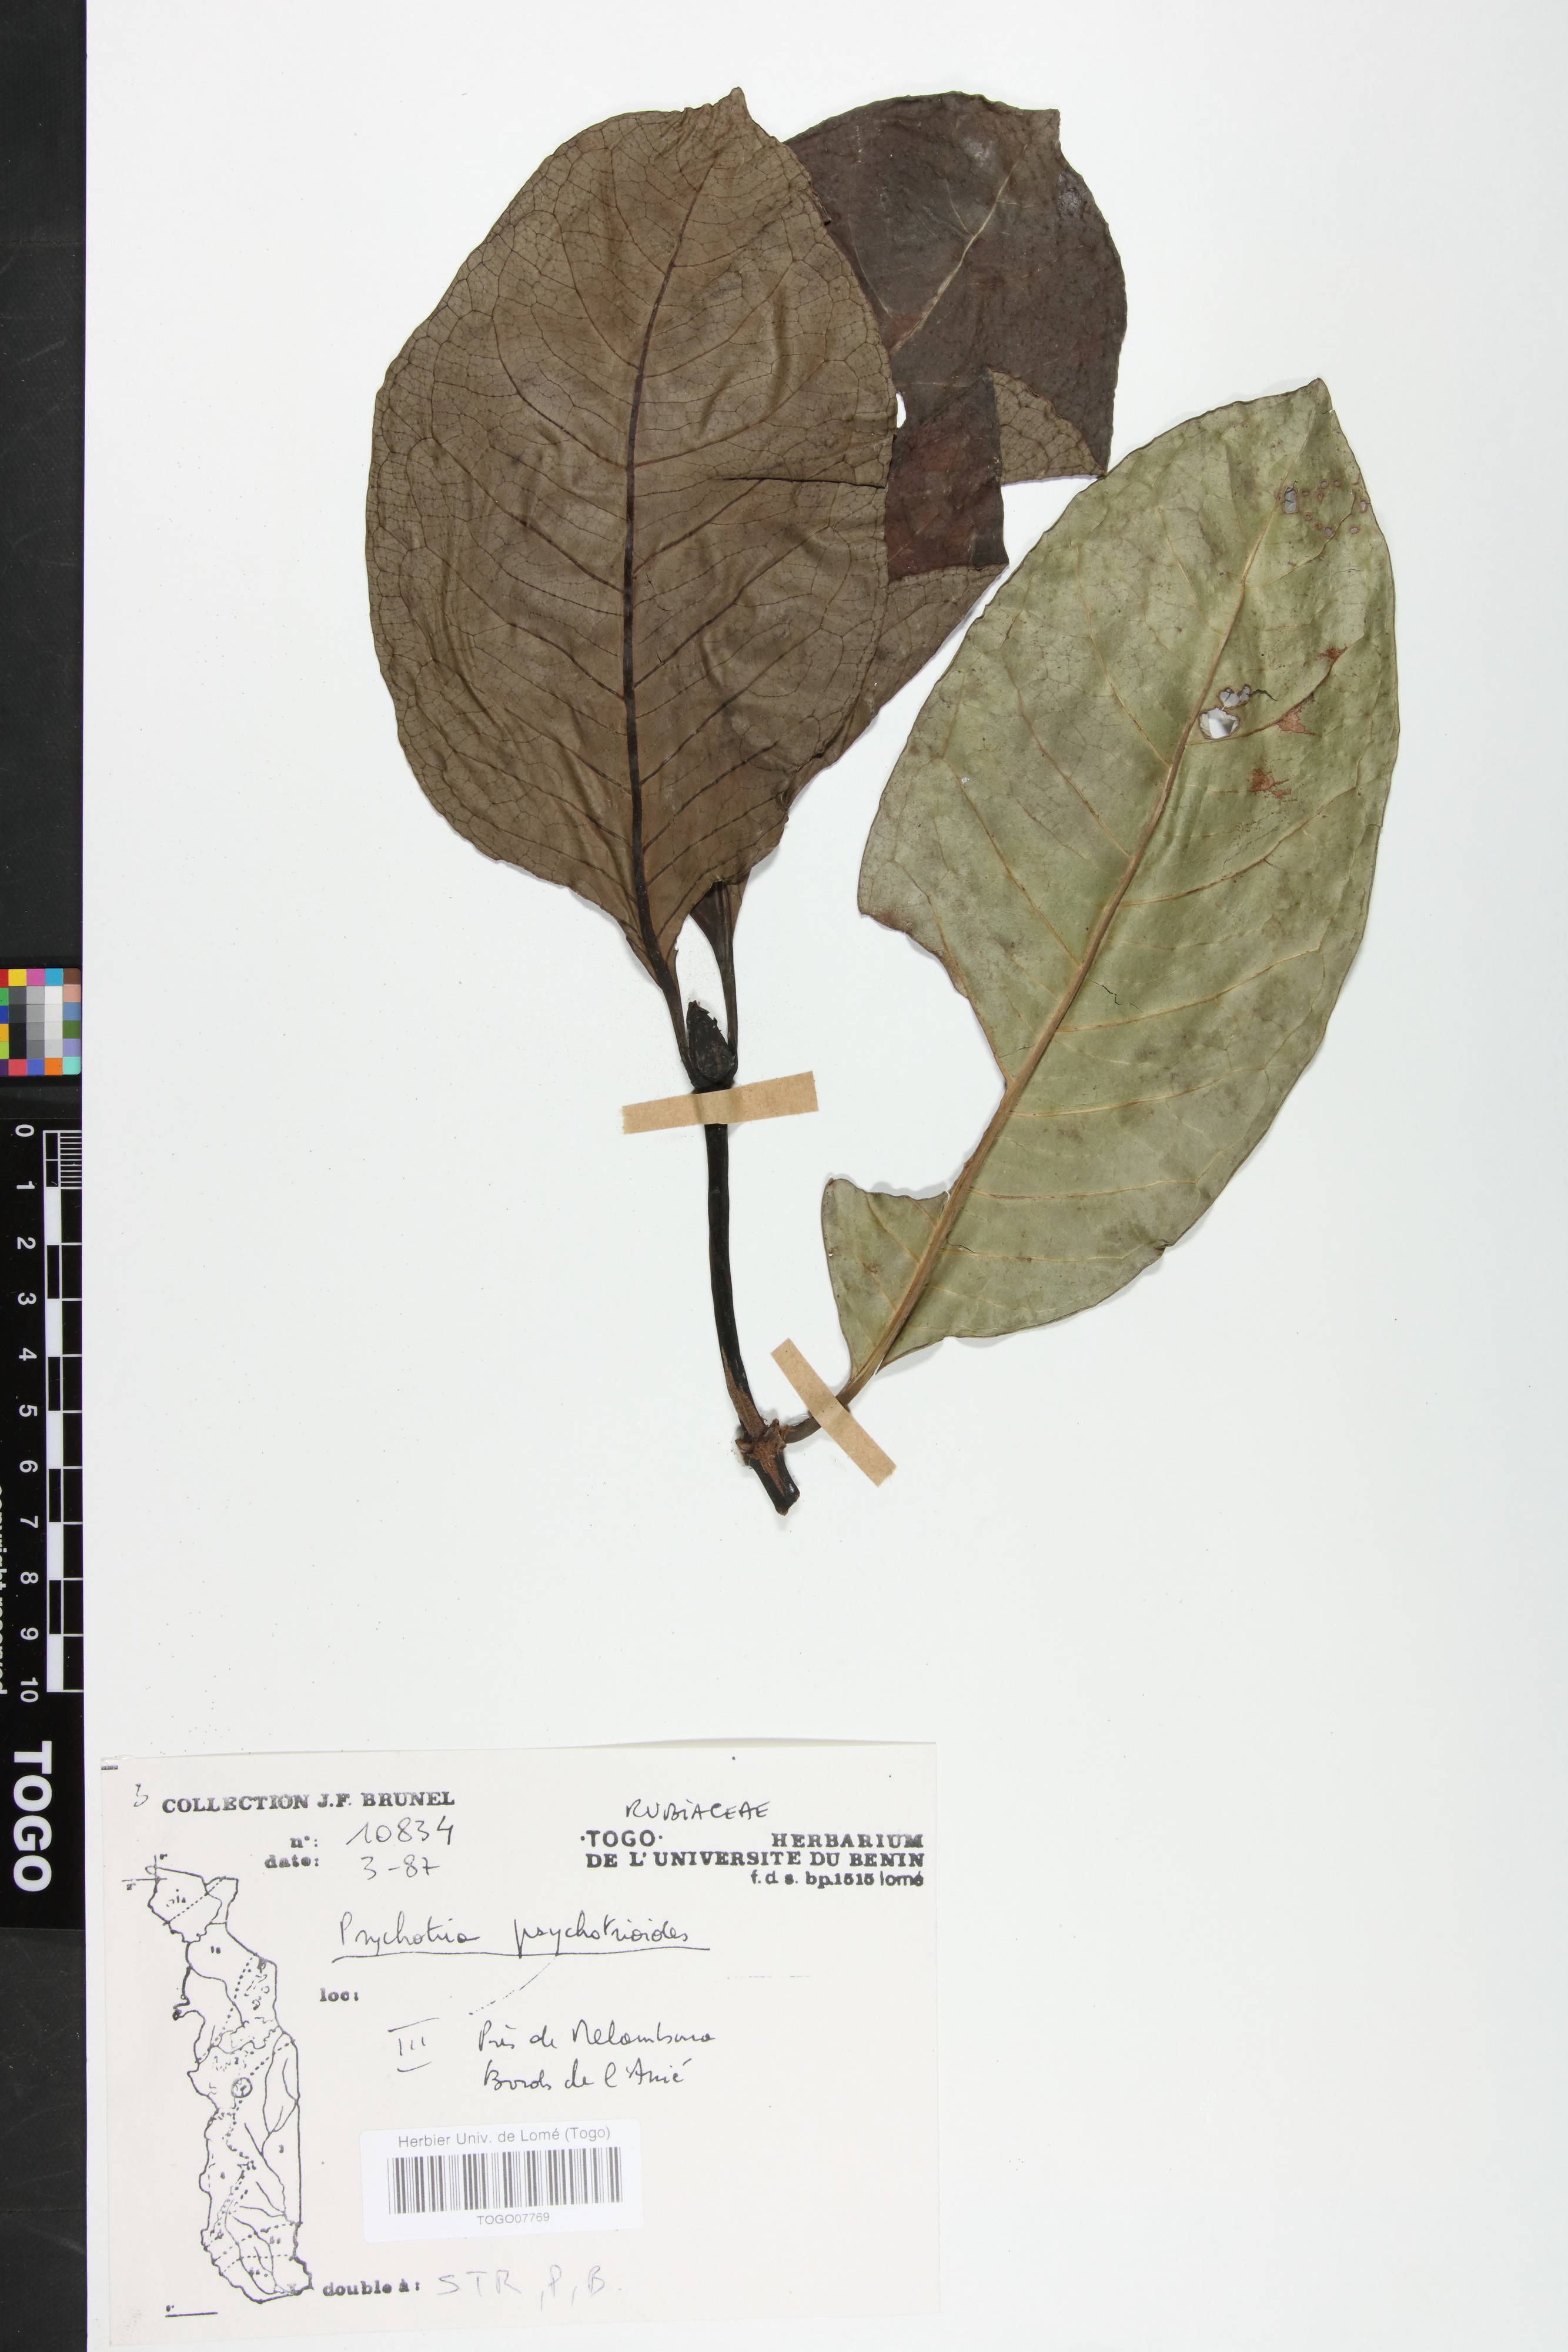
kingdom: Plantae
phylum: Tracheophyta
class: Magnoliopsida
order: Gentianales
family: Rubiaceae
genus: Psychotria
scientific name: Psychotria psychotrioides
